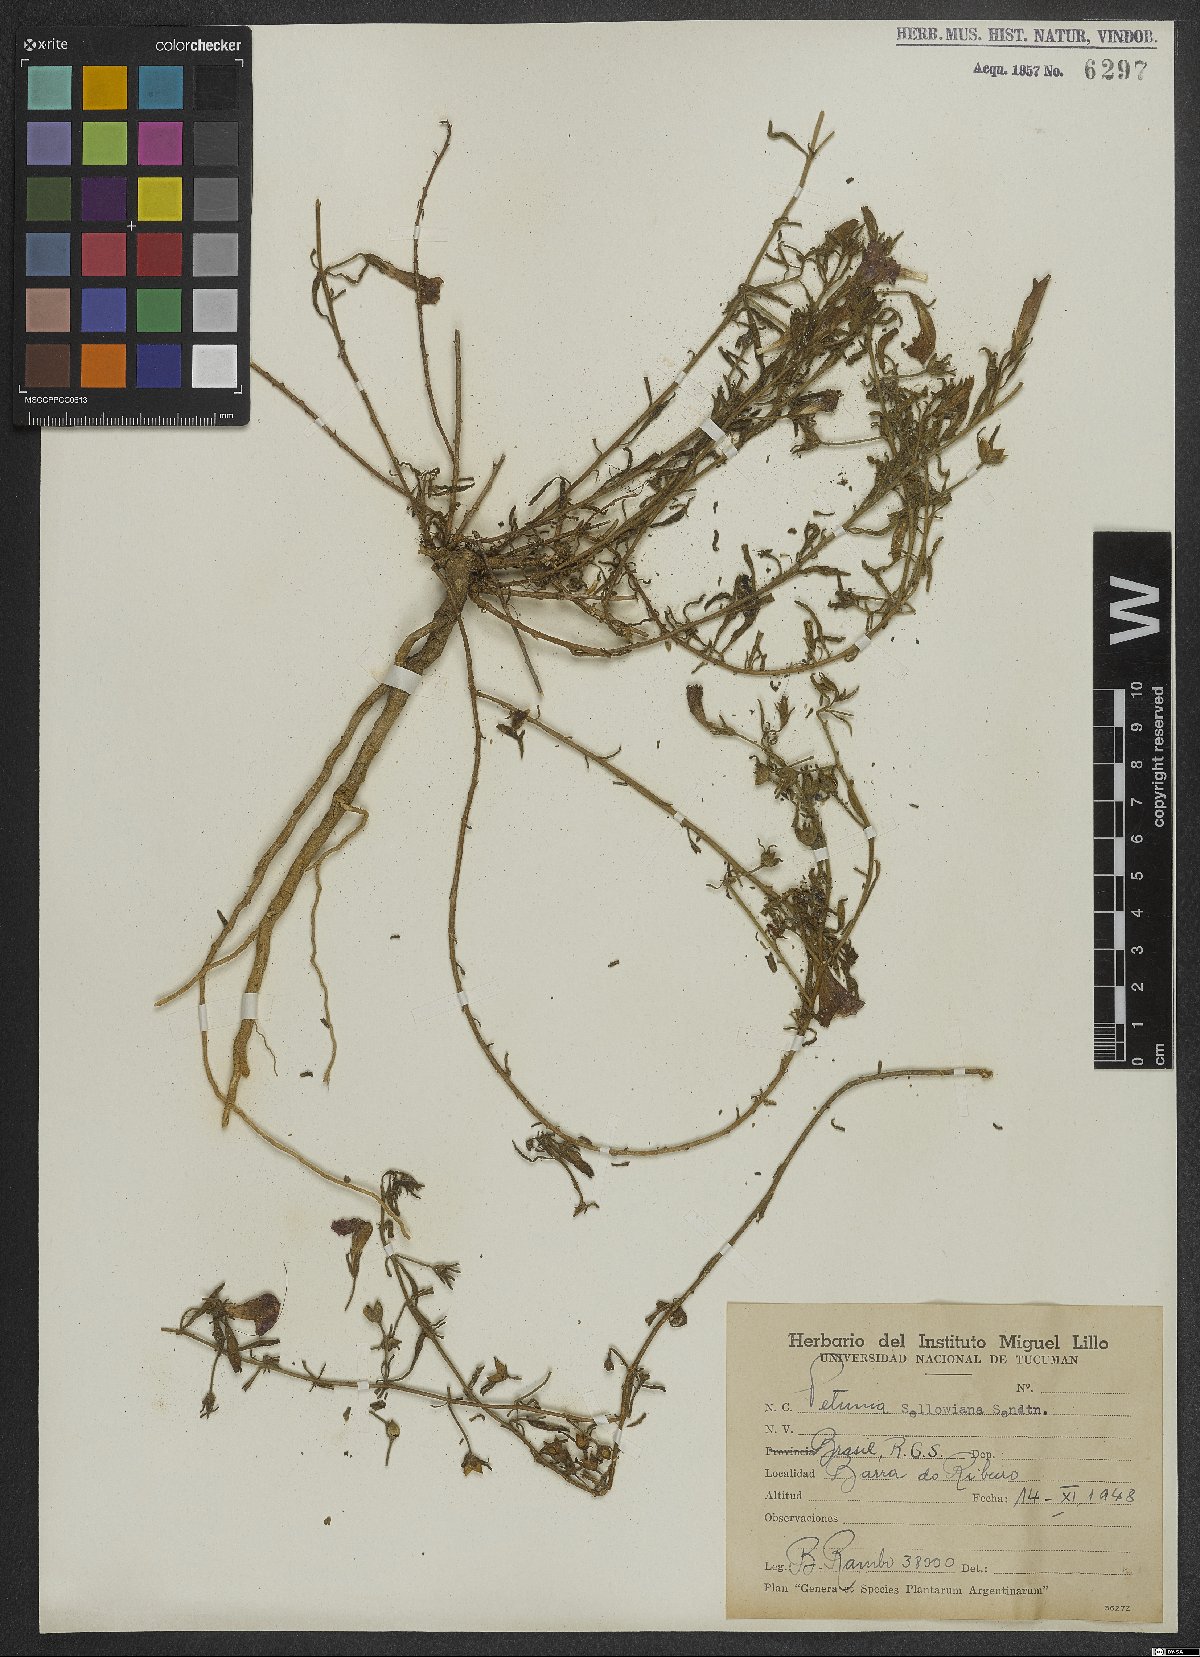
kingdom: Plantae
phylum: Tracheophyta
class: Magnoliopsida
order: Solanales
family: Solanaceae
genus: Calibrachoa
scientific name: Calibrachoa sellowiana
